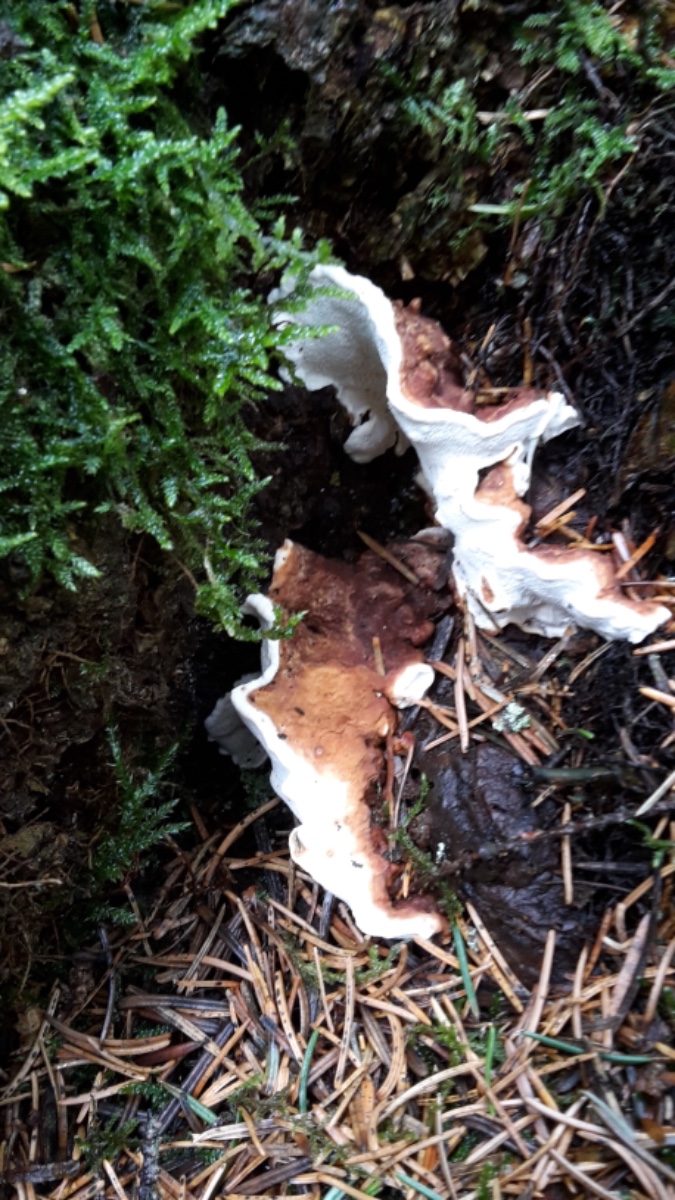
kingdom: Fungi
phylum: Basidiomycota
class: Agaricomycetes
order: Russulales
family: Bondarzewiaceae
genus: Heterobasidion
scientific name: Heterobasidion annosum
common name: almindelig rodfordærver
